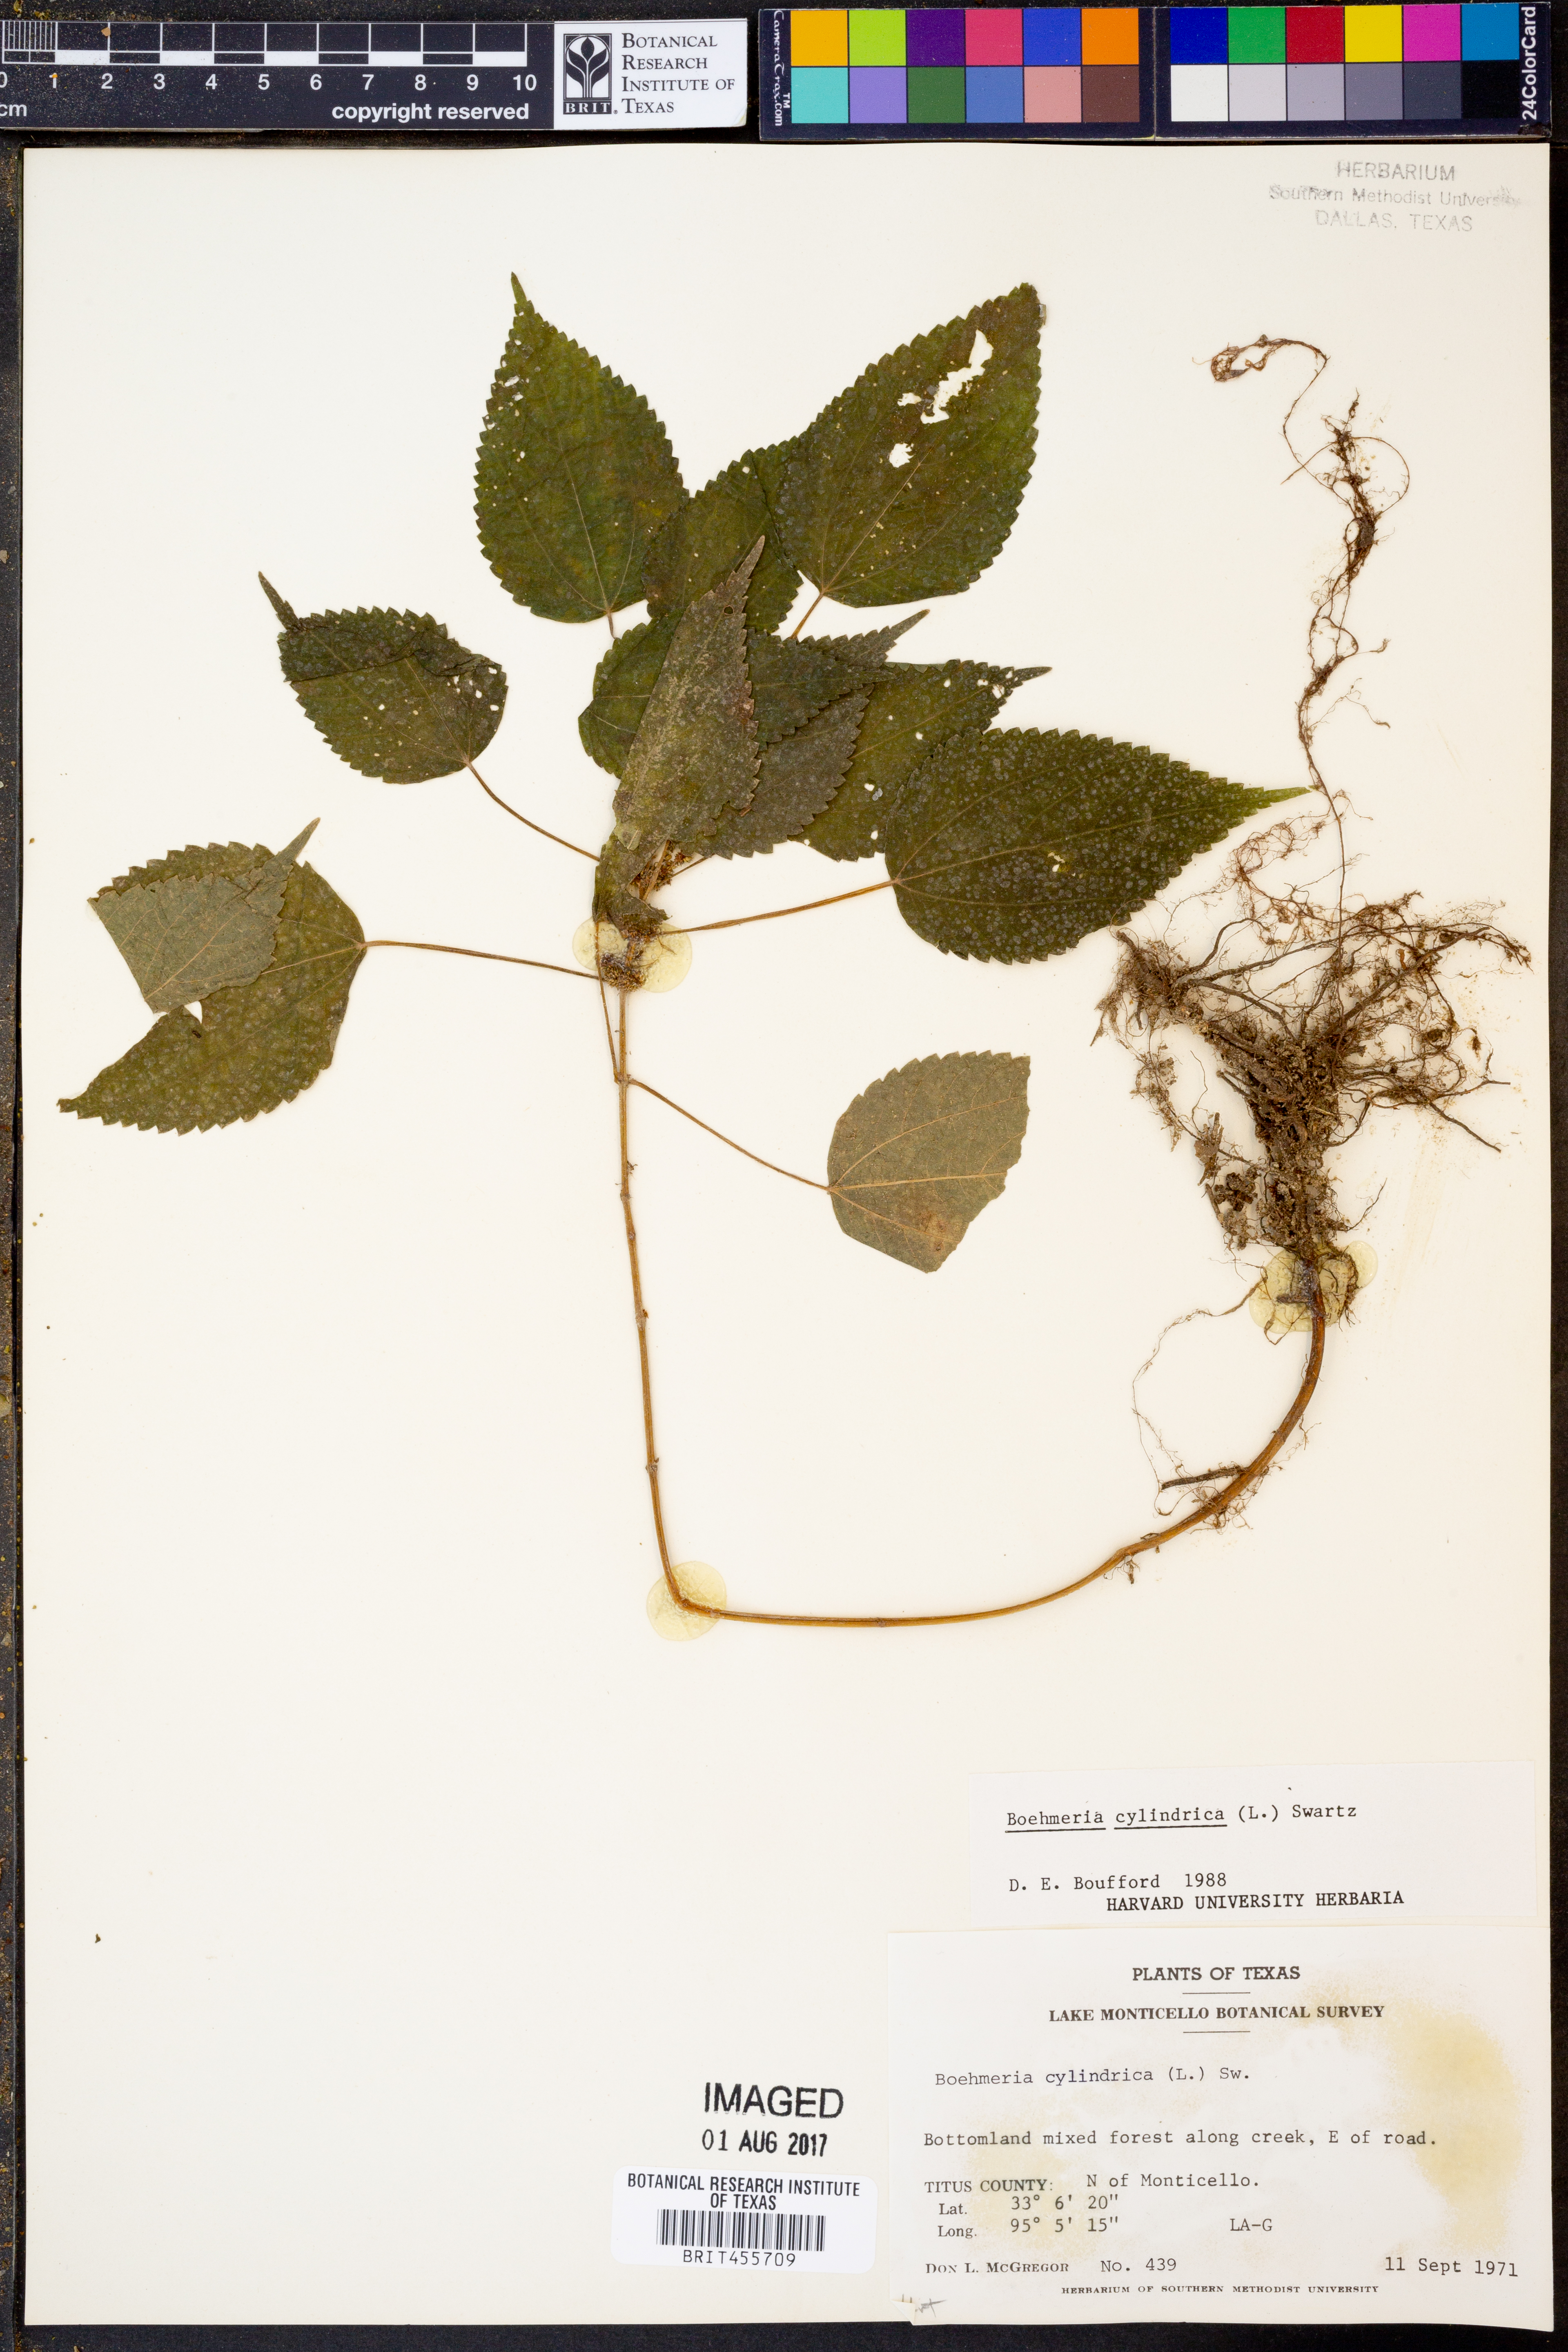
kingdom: Plantae
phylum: Tracheophyta
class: Magnoliopsida
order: Rosales
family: Urticaceae
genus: Boehmeria
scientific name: Boehmeria cylindrica
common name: Bog-hemp
